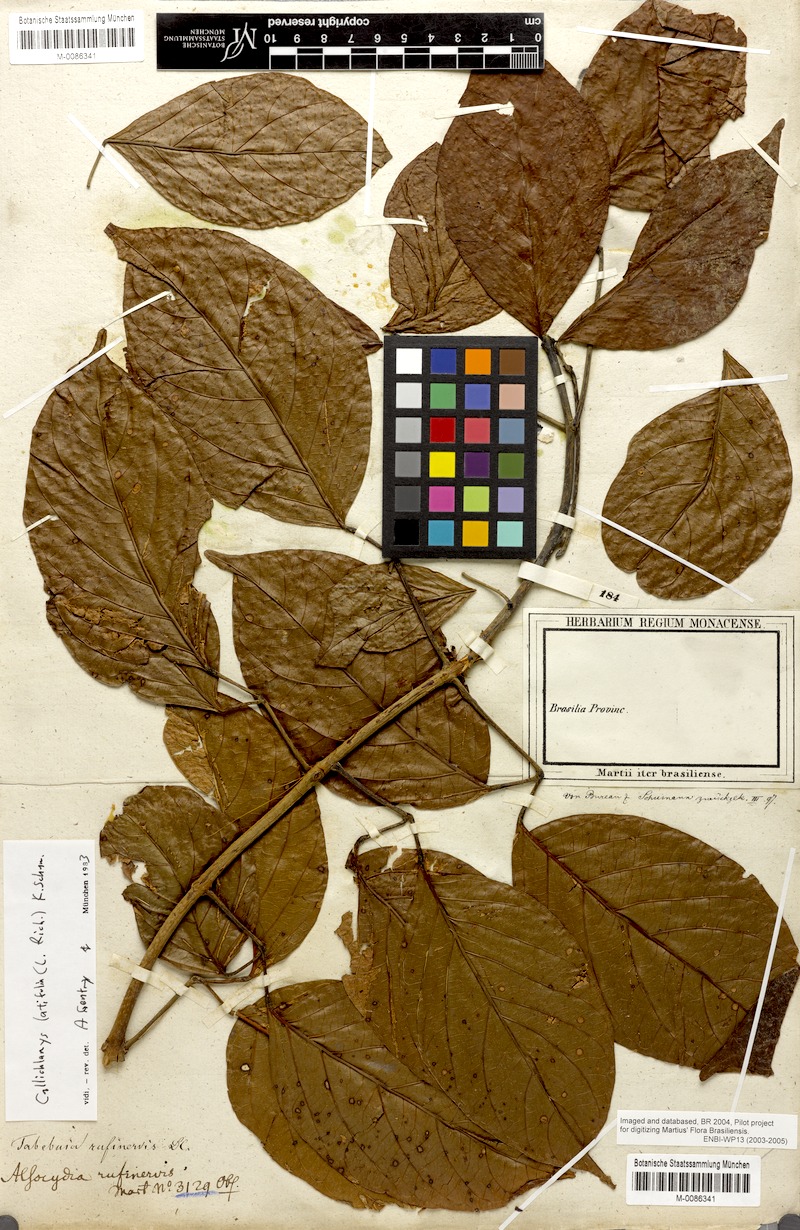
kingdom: Plantae
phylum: Tracheophyta
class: Magnoliopsida
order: Lamiales
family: Bignoniaceae
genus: Callichlamys
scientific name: Callichlamys latifolia
